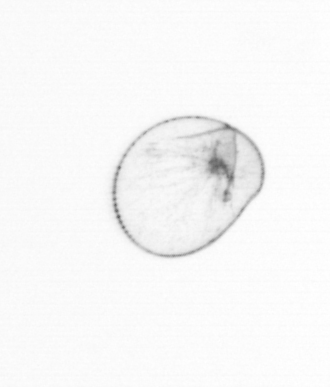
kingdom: Chromista
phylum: Myzozoa
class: Dinophyceae
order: Noctilucales
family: Noctilucaceae
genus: Noctiluca
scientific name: Noctiluca scintillans
